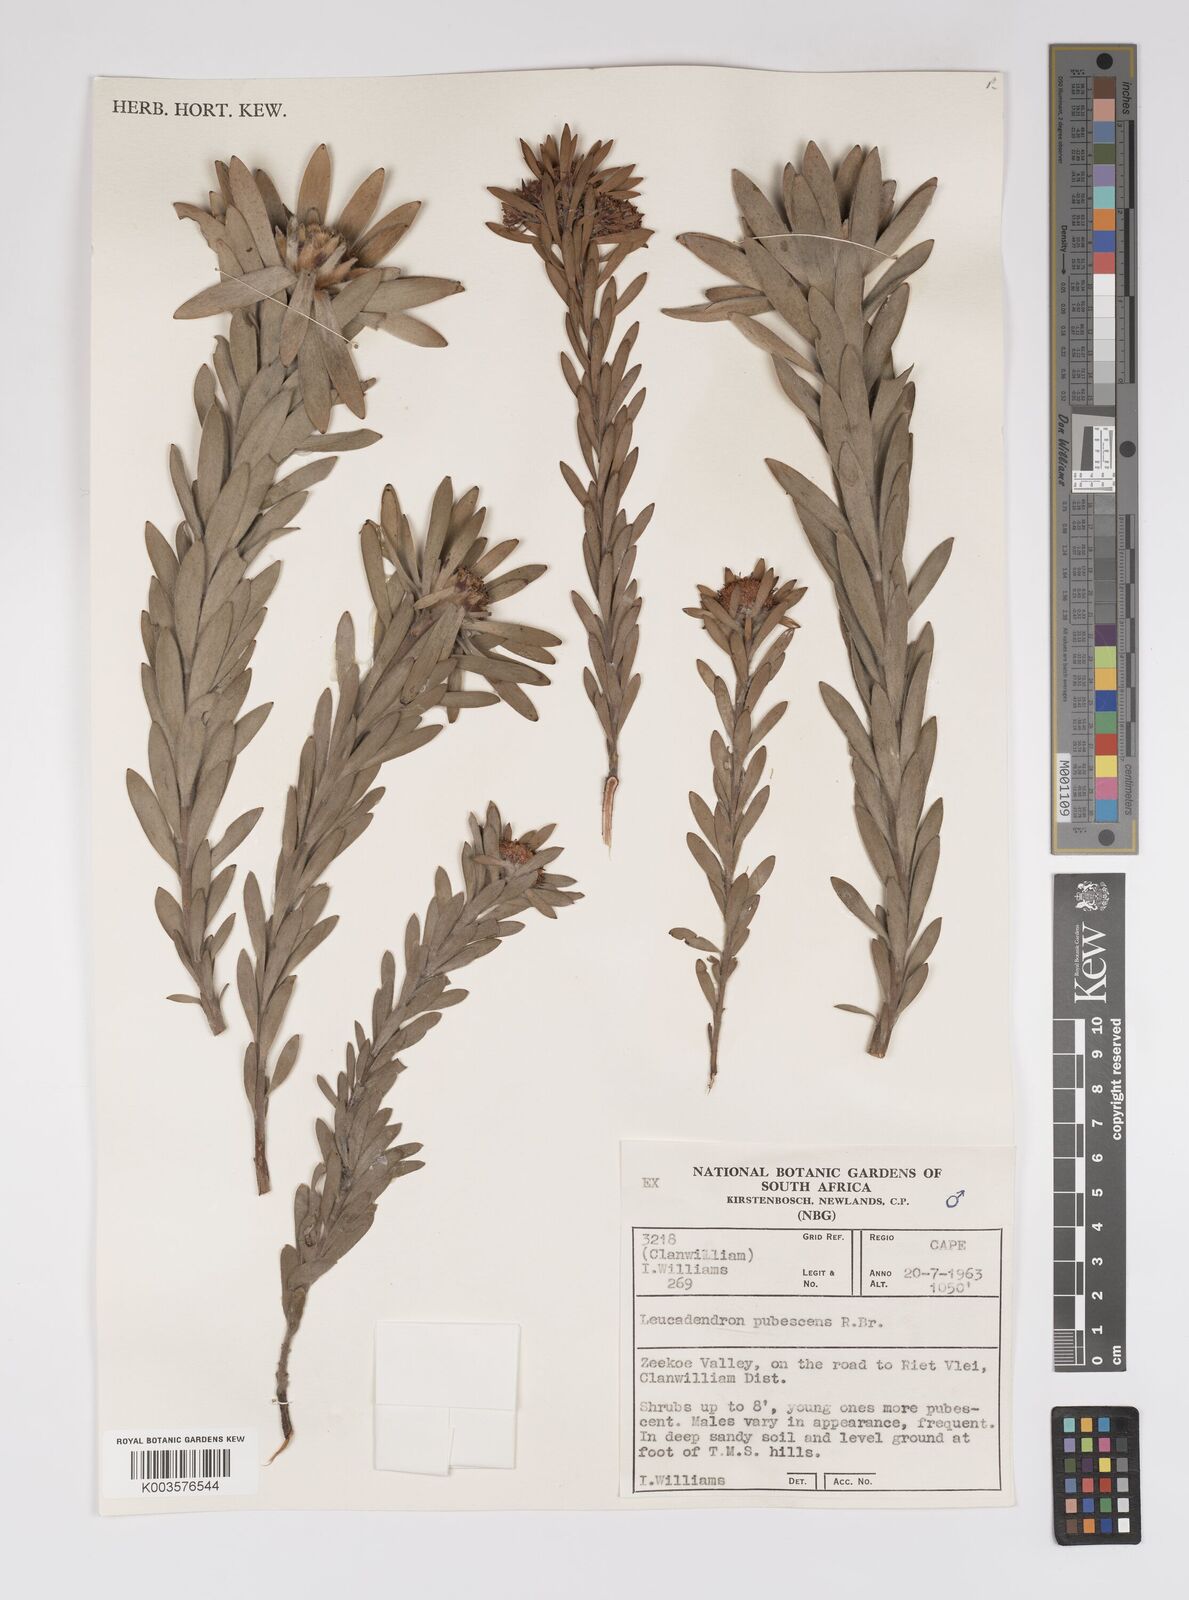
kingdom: Plantae
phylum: Tracheophyta
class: Magnoliopsida
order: Proteales
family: Proteaceae
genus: Leucadendron
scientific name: Leucadendron pubescens
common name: Grey conebush
